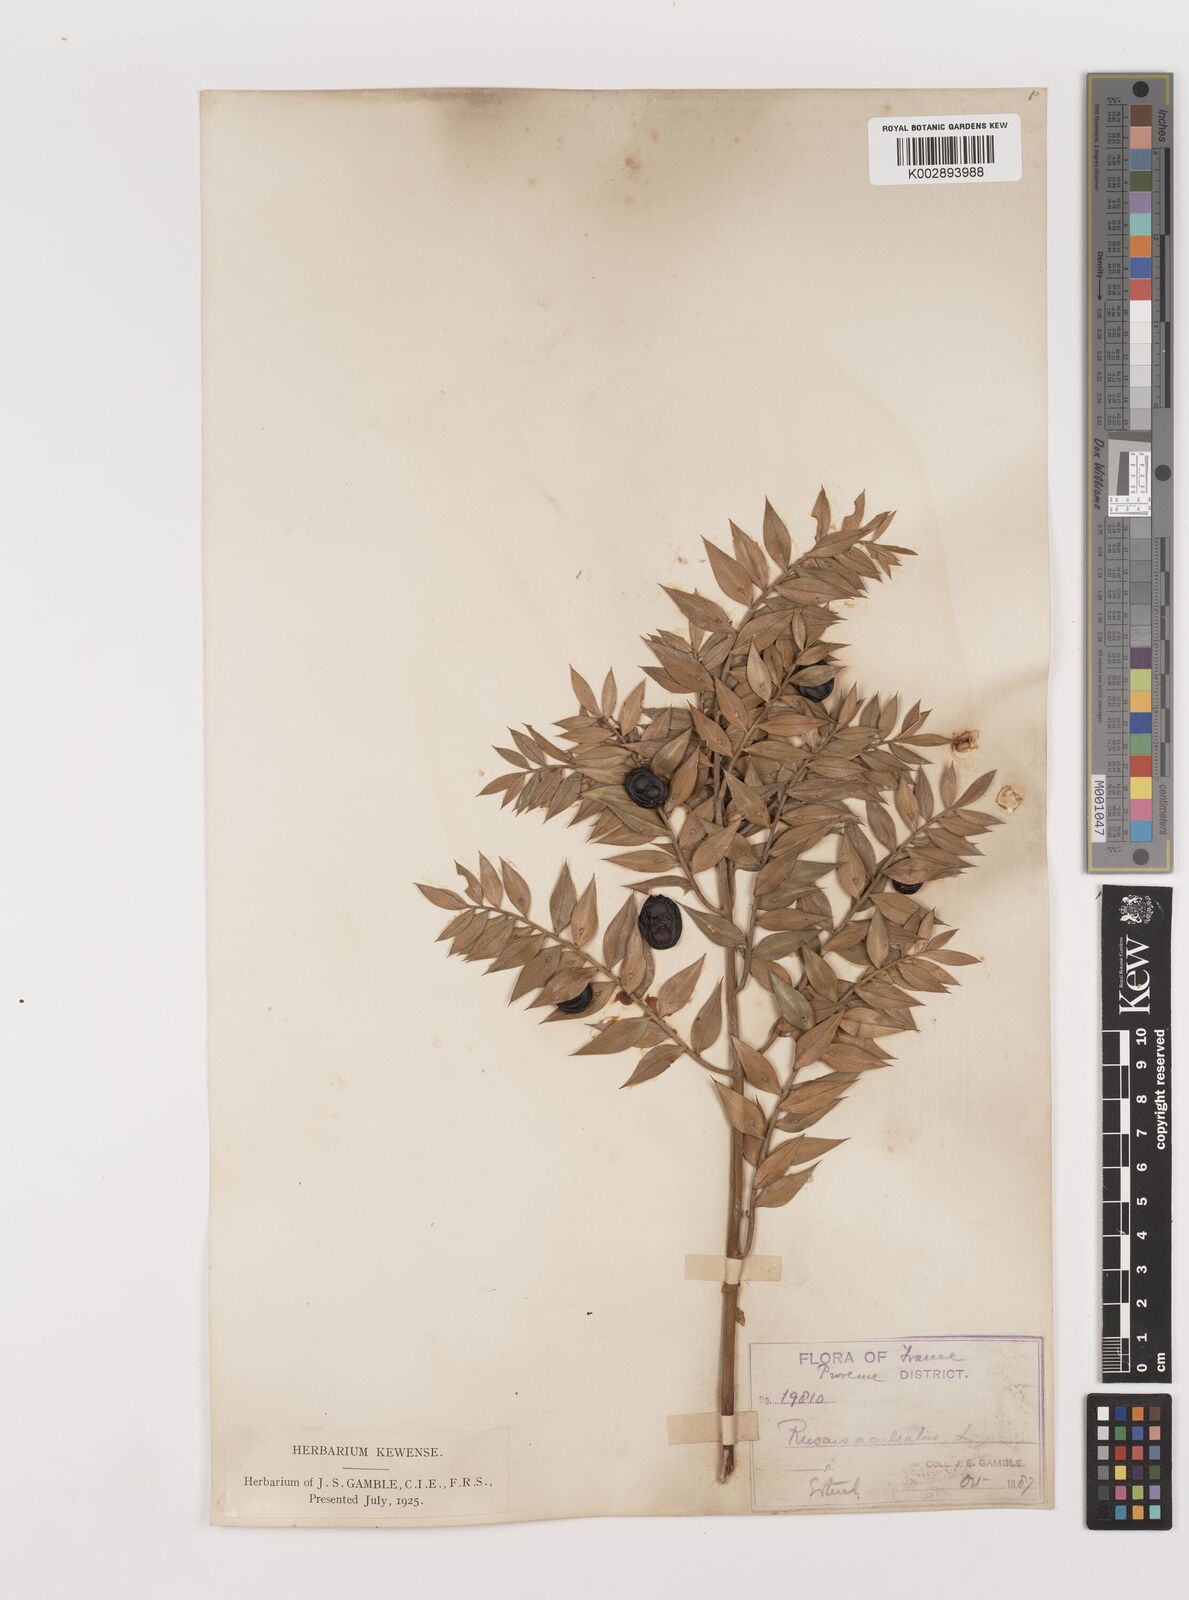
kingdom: Plantae
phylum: Tracheophyta
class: Liliopsida
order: Asparagales
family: Asparagaceae
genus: Ruscus
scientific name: Ruscus aculeatus
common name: Butcher's-broom
